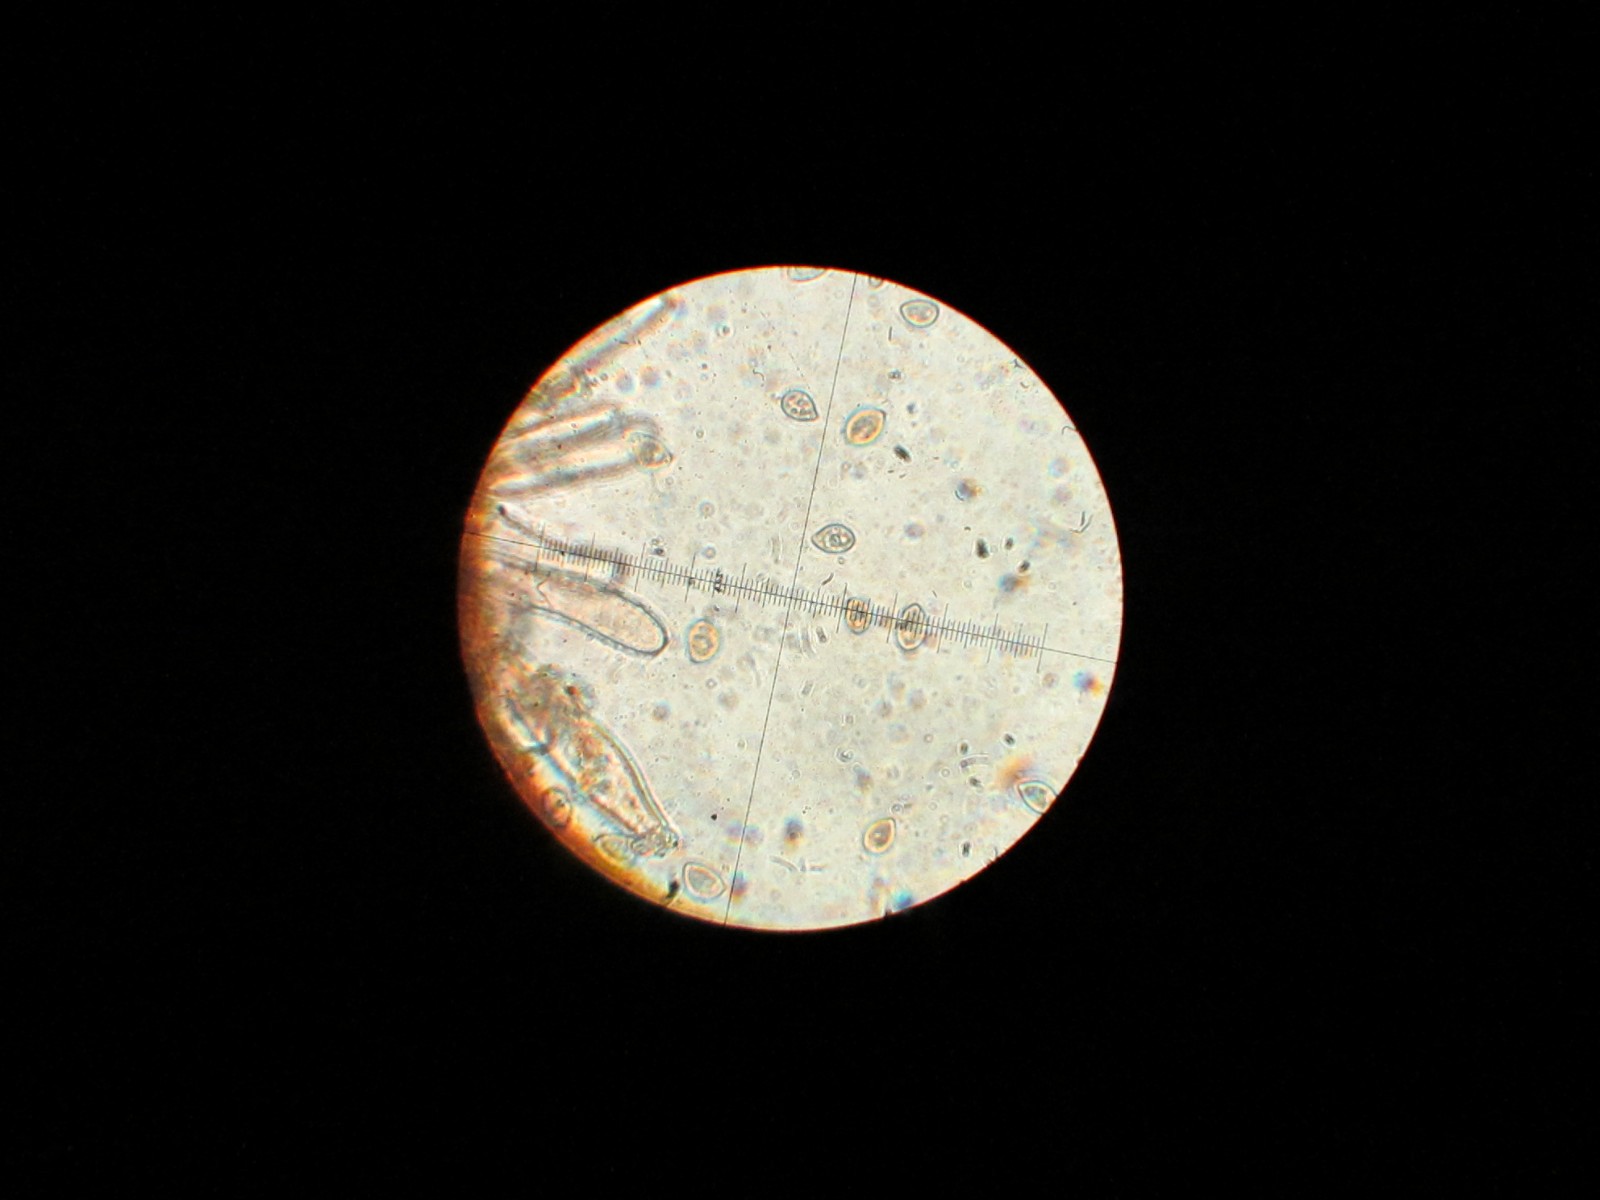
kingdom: Fungi
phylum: Basidiomycota
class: Agaricomycetes
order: Agaricales
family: Inocybaceae
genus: Inocybe
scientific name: Inocybe
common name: trævlhat
